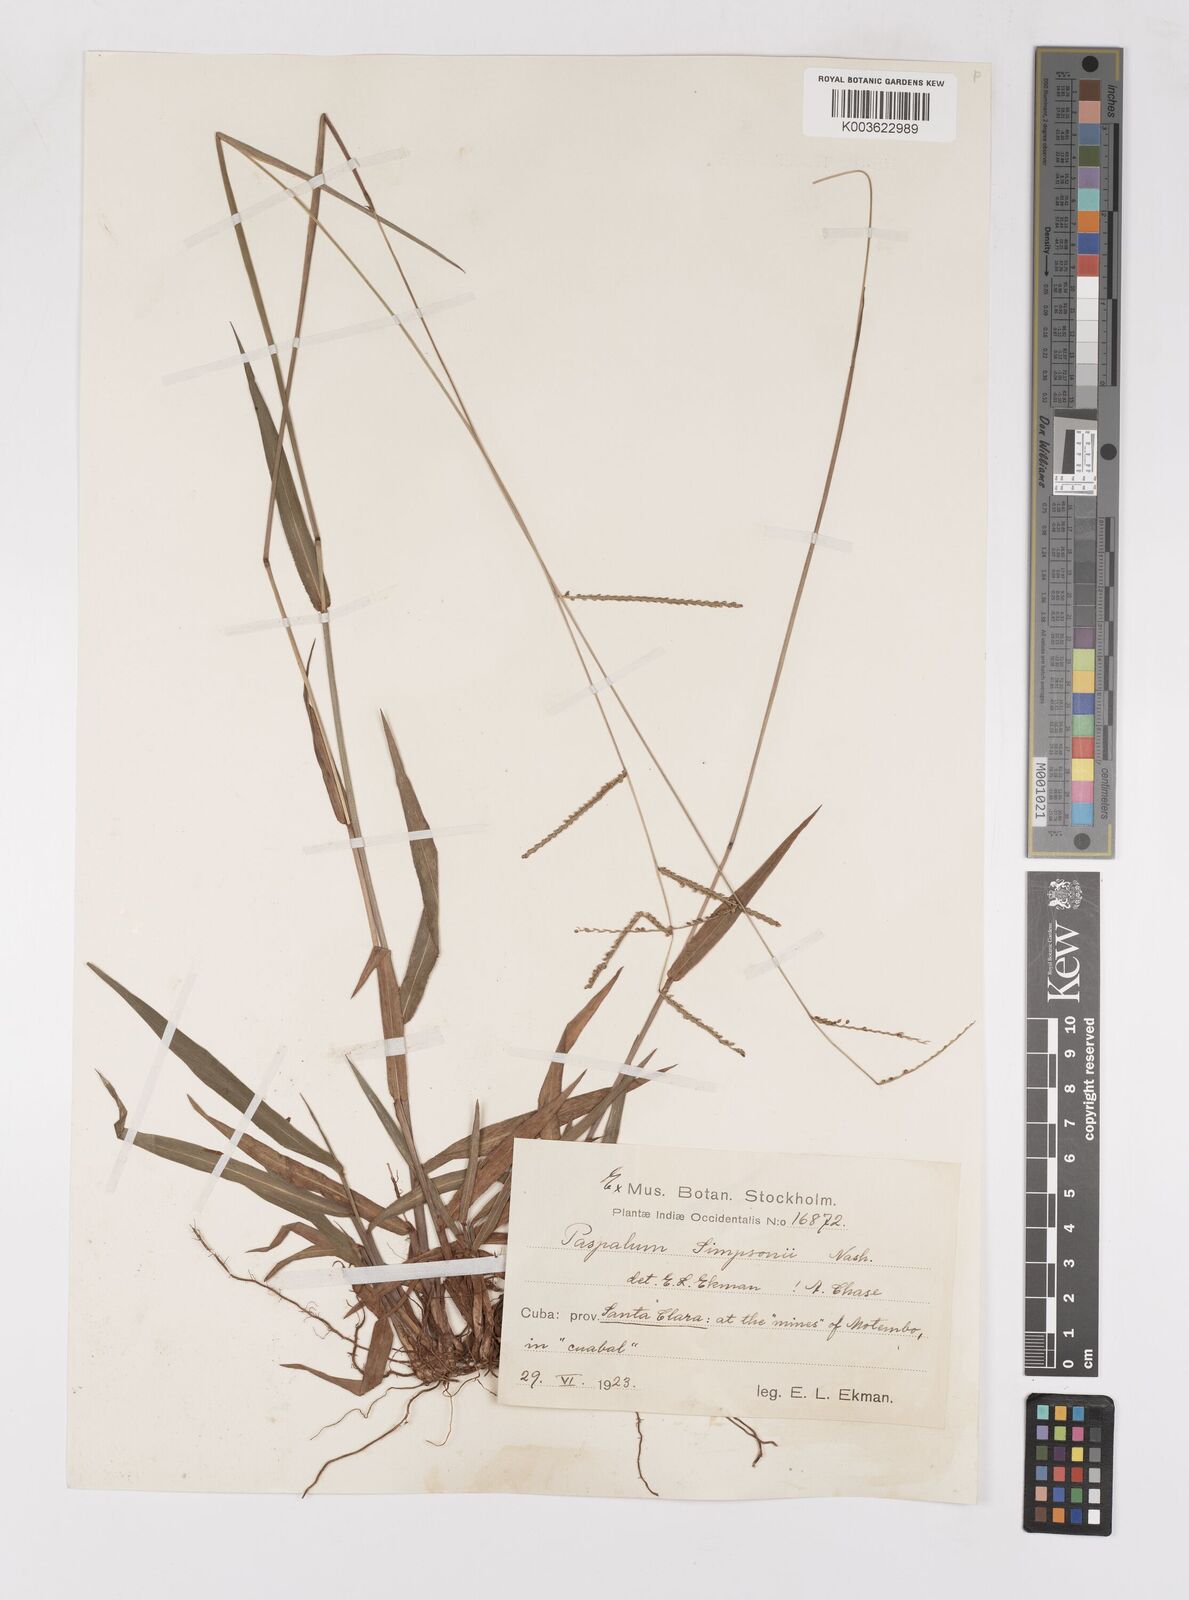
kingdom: Plantae
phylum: Tracheophyta
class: Liliopsida
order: Poales
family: Poaceae
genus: Paspalum
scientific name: Paspalum blodgettii
